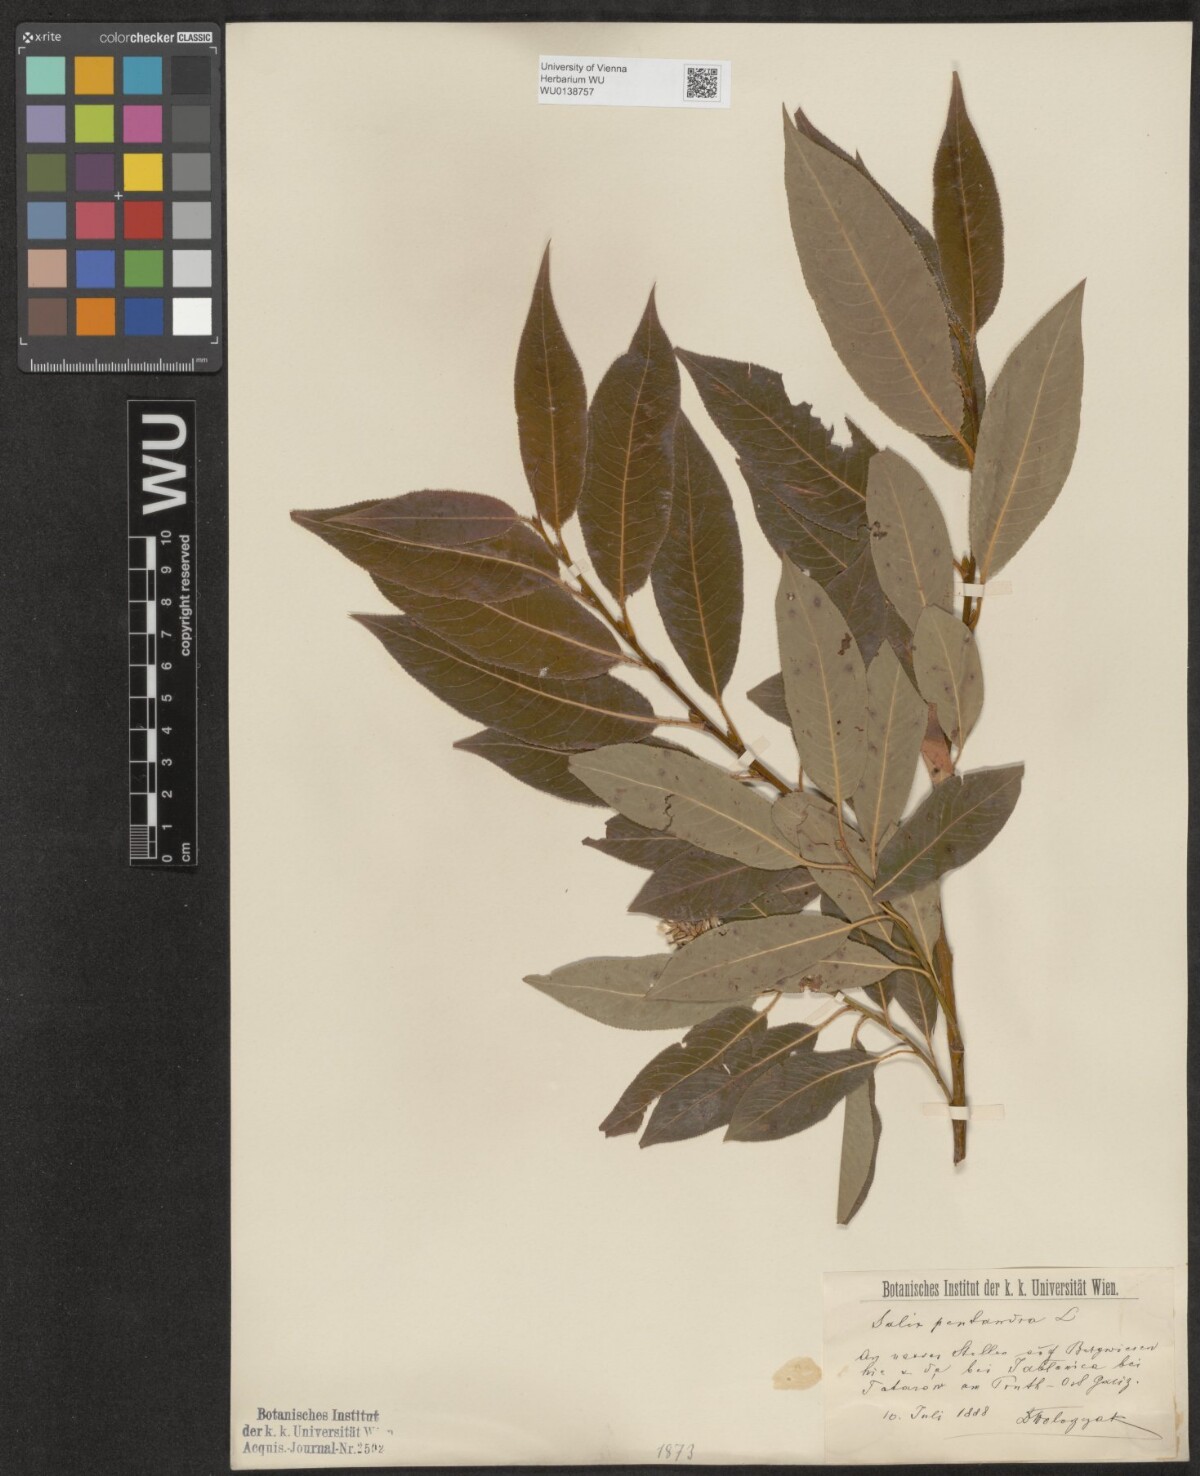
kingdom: Plantae
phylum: Tracheophyta
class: Magnoliopsida
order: Malpighiales
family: Salicaceae
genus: Salix
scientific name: Salix pentandra
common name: Bay willow
